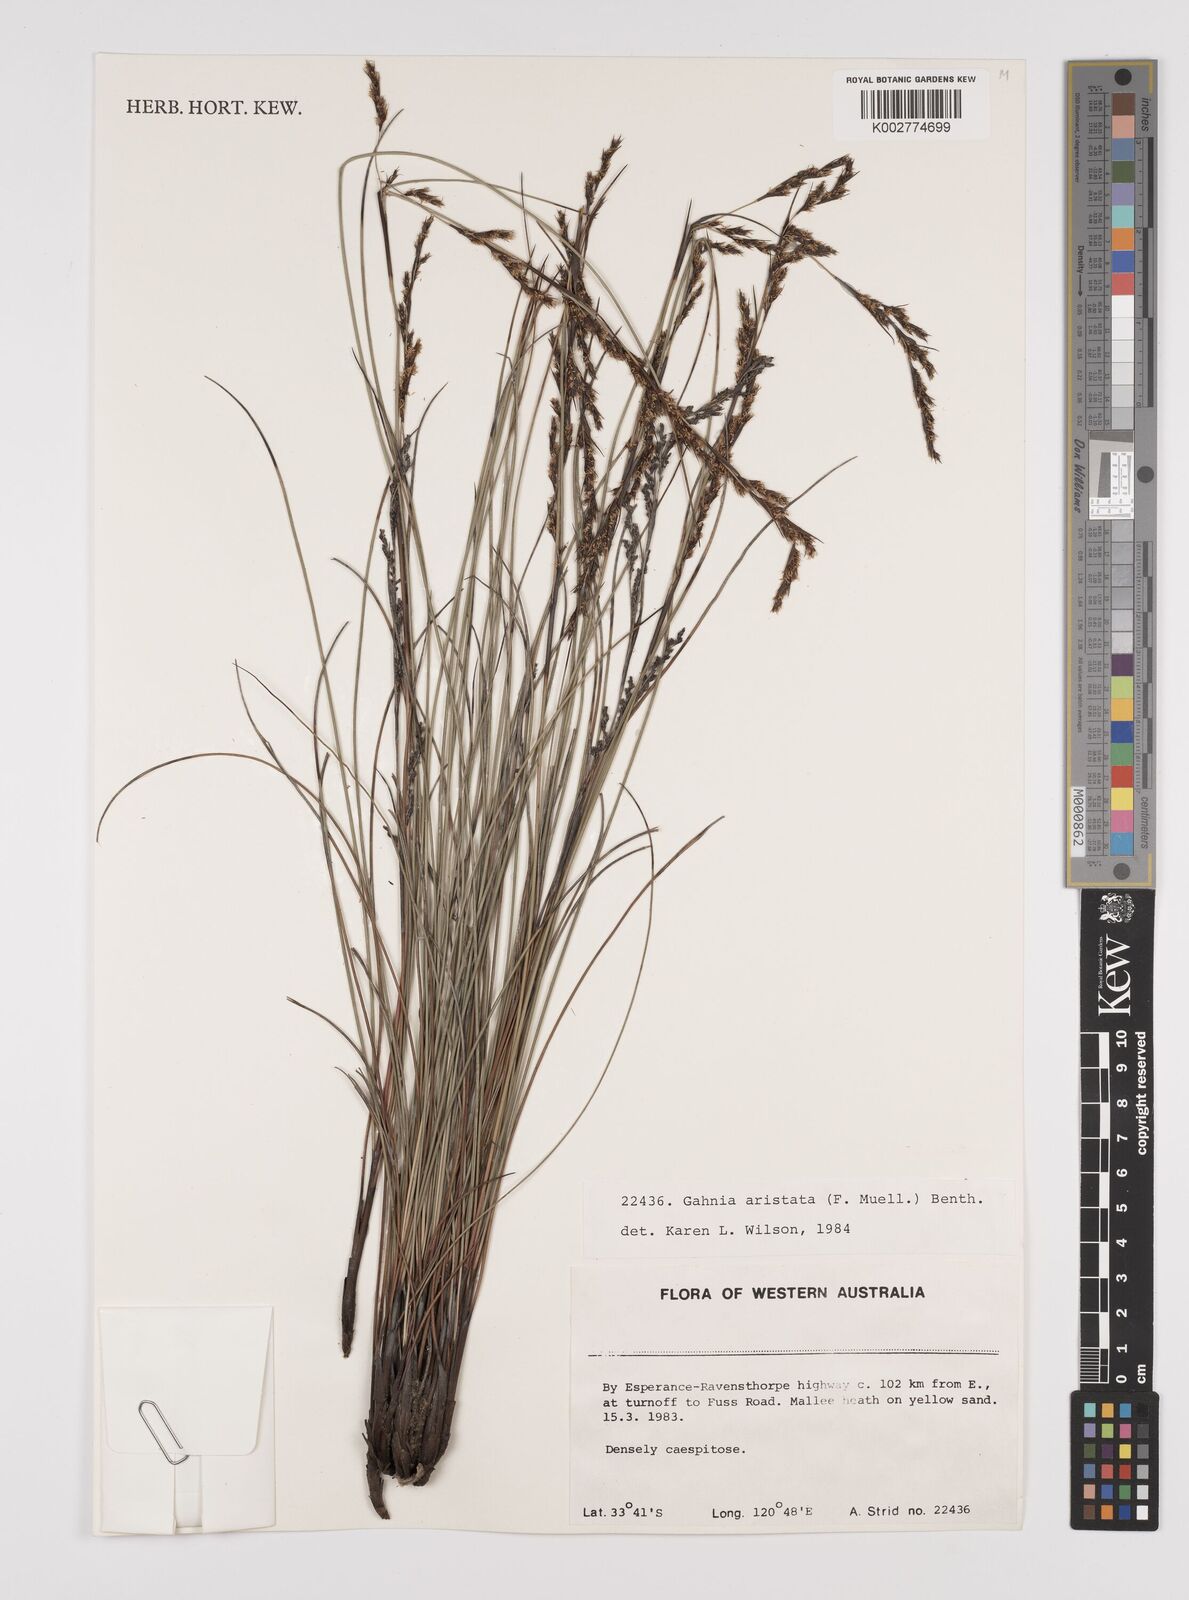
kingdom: Plantae
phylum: Tracheophyta
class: Liliopsida
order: Poales
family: Cyperaceae
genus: Machaerina
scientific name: Machaerina articulata
